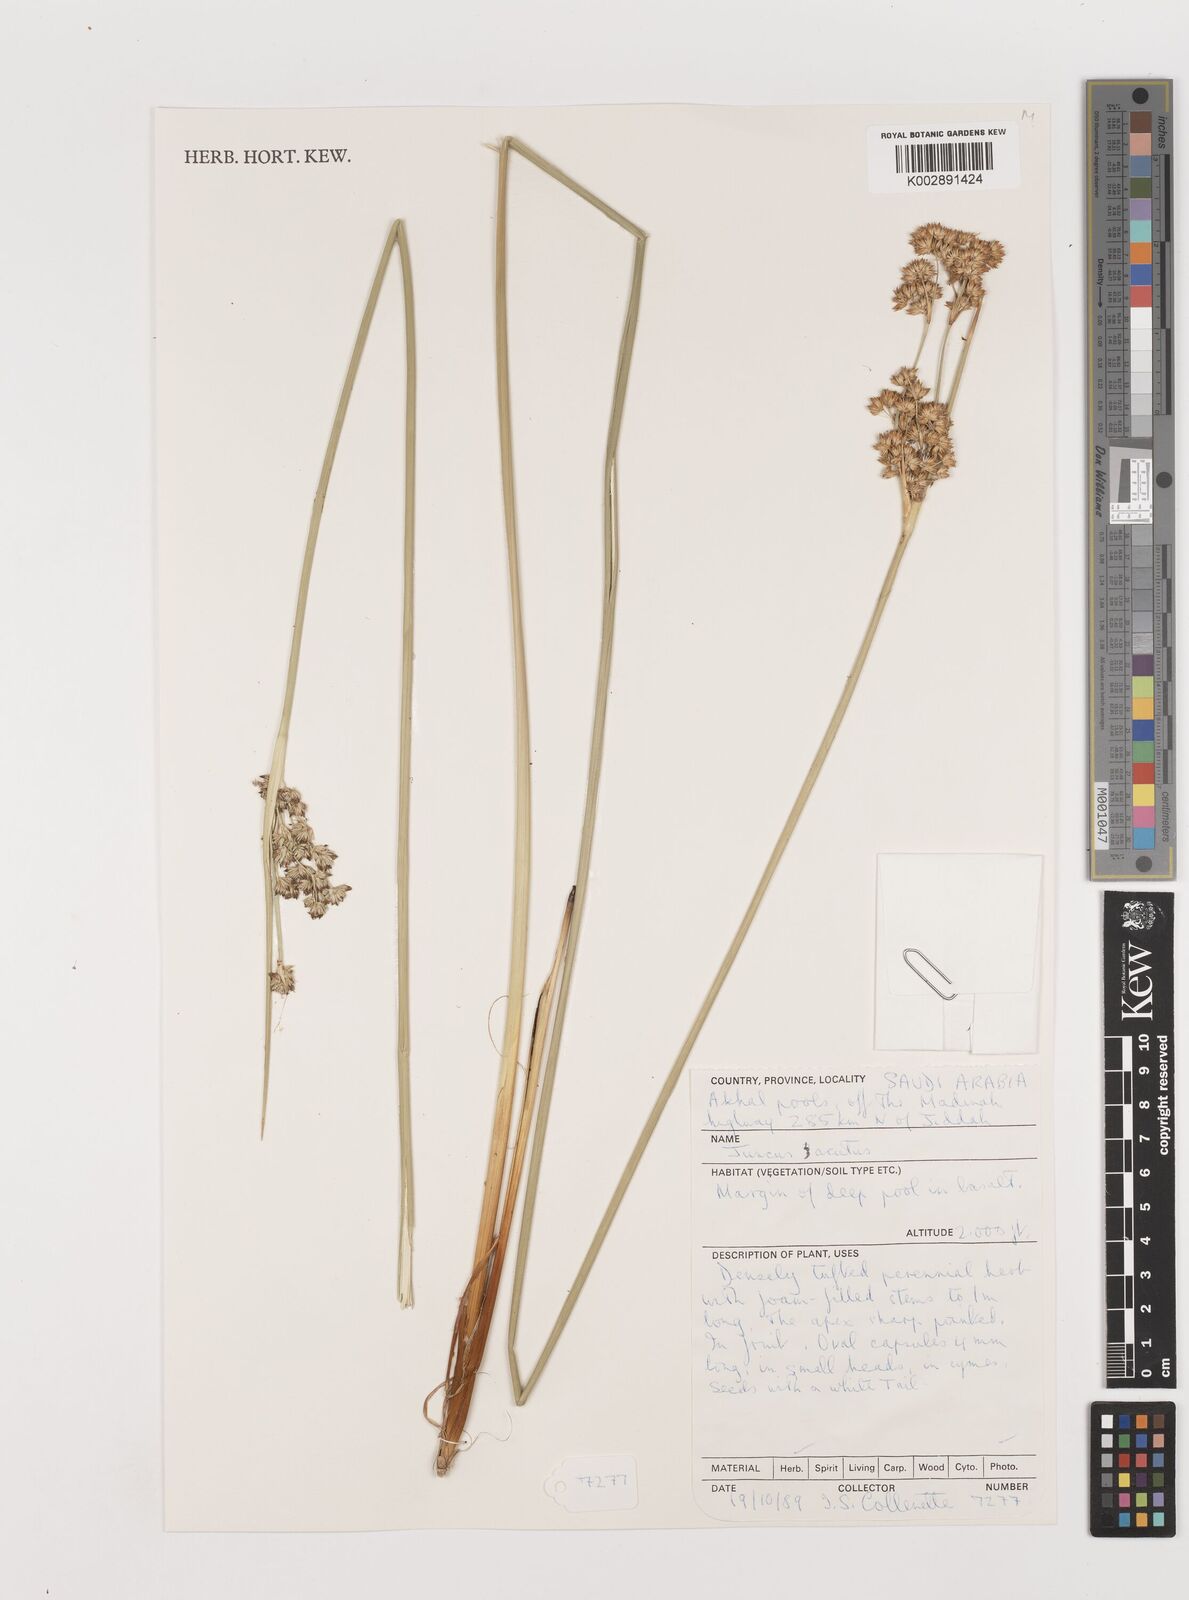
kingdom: Plantae
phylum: Tracheophyta
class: Liliopsida
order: Poales
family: Juncaceae
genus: Juncus
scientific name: Juncus acutus
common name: Sharp rush
